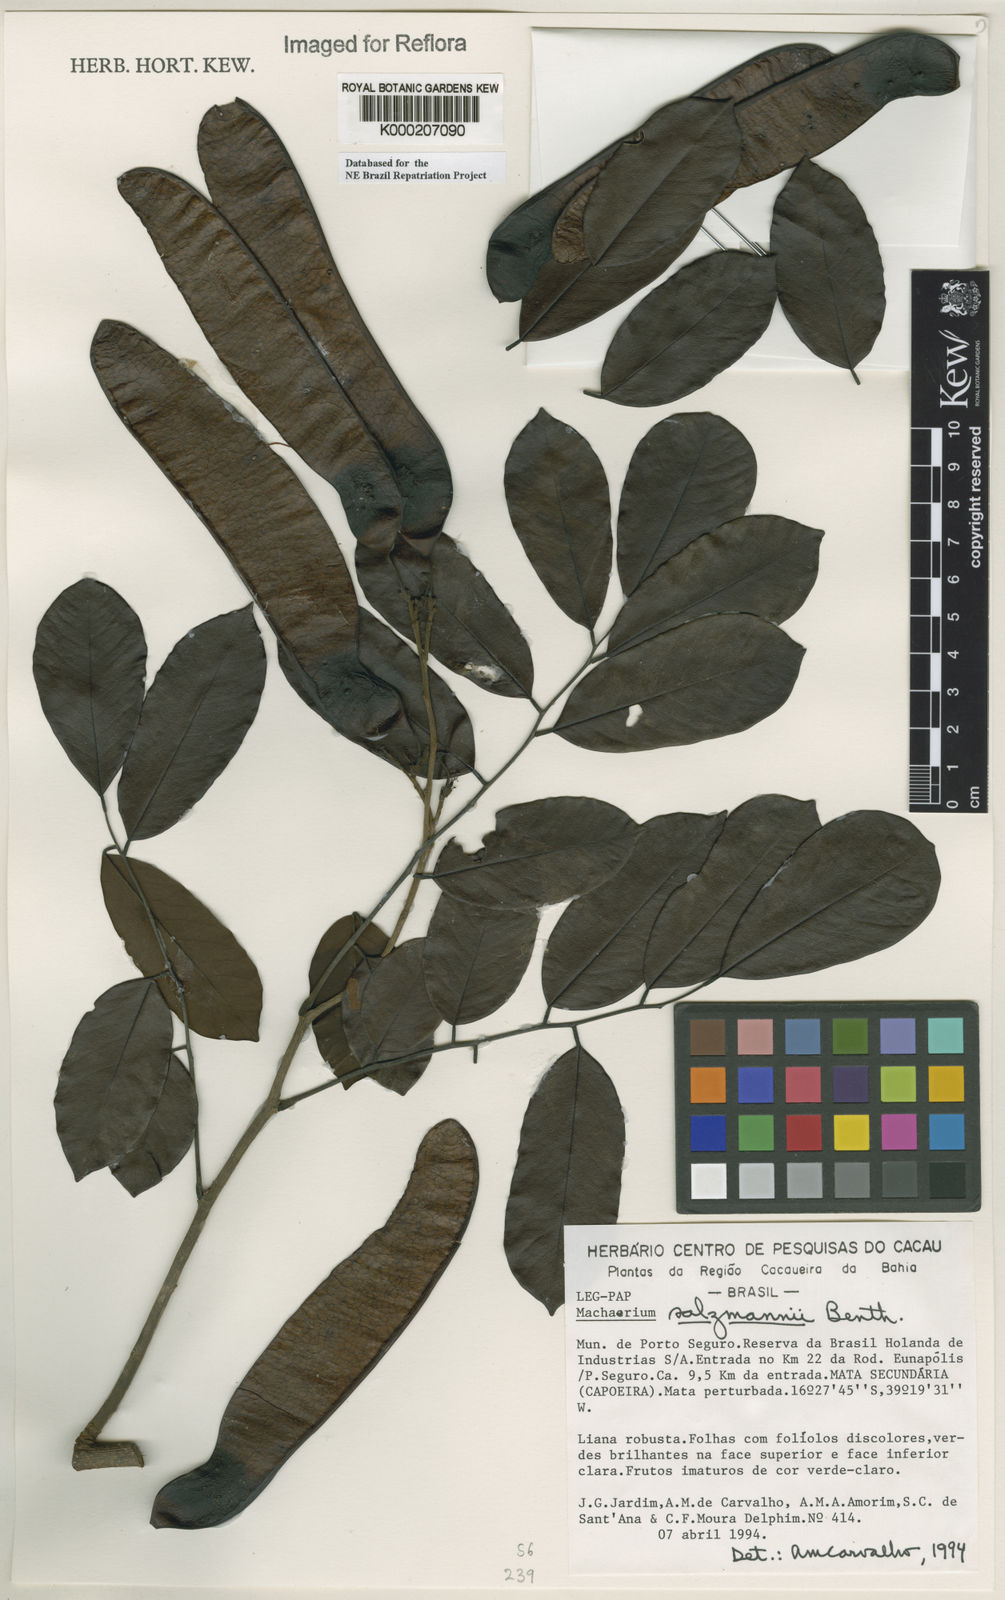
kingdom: Plantae
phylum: Tracheophyta
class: Magnoliopsida
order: Fabales
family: Fabaceae
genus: Machaerium
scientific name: Machaerium salzmannii
